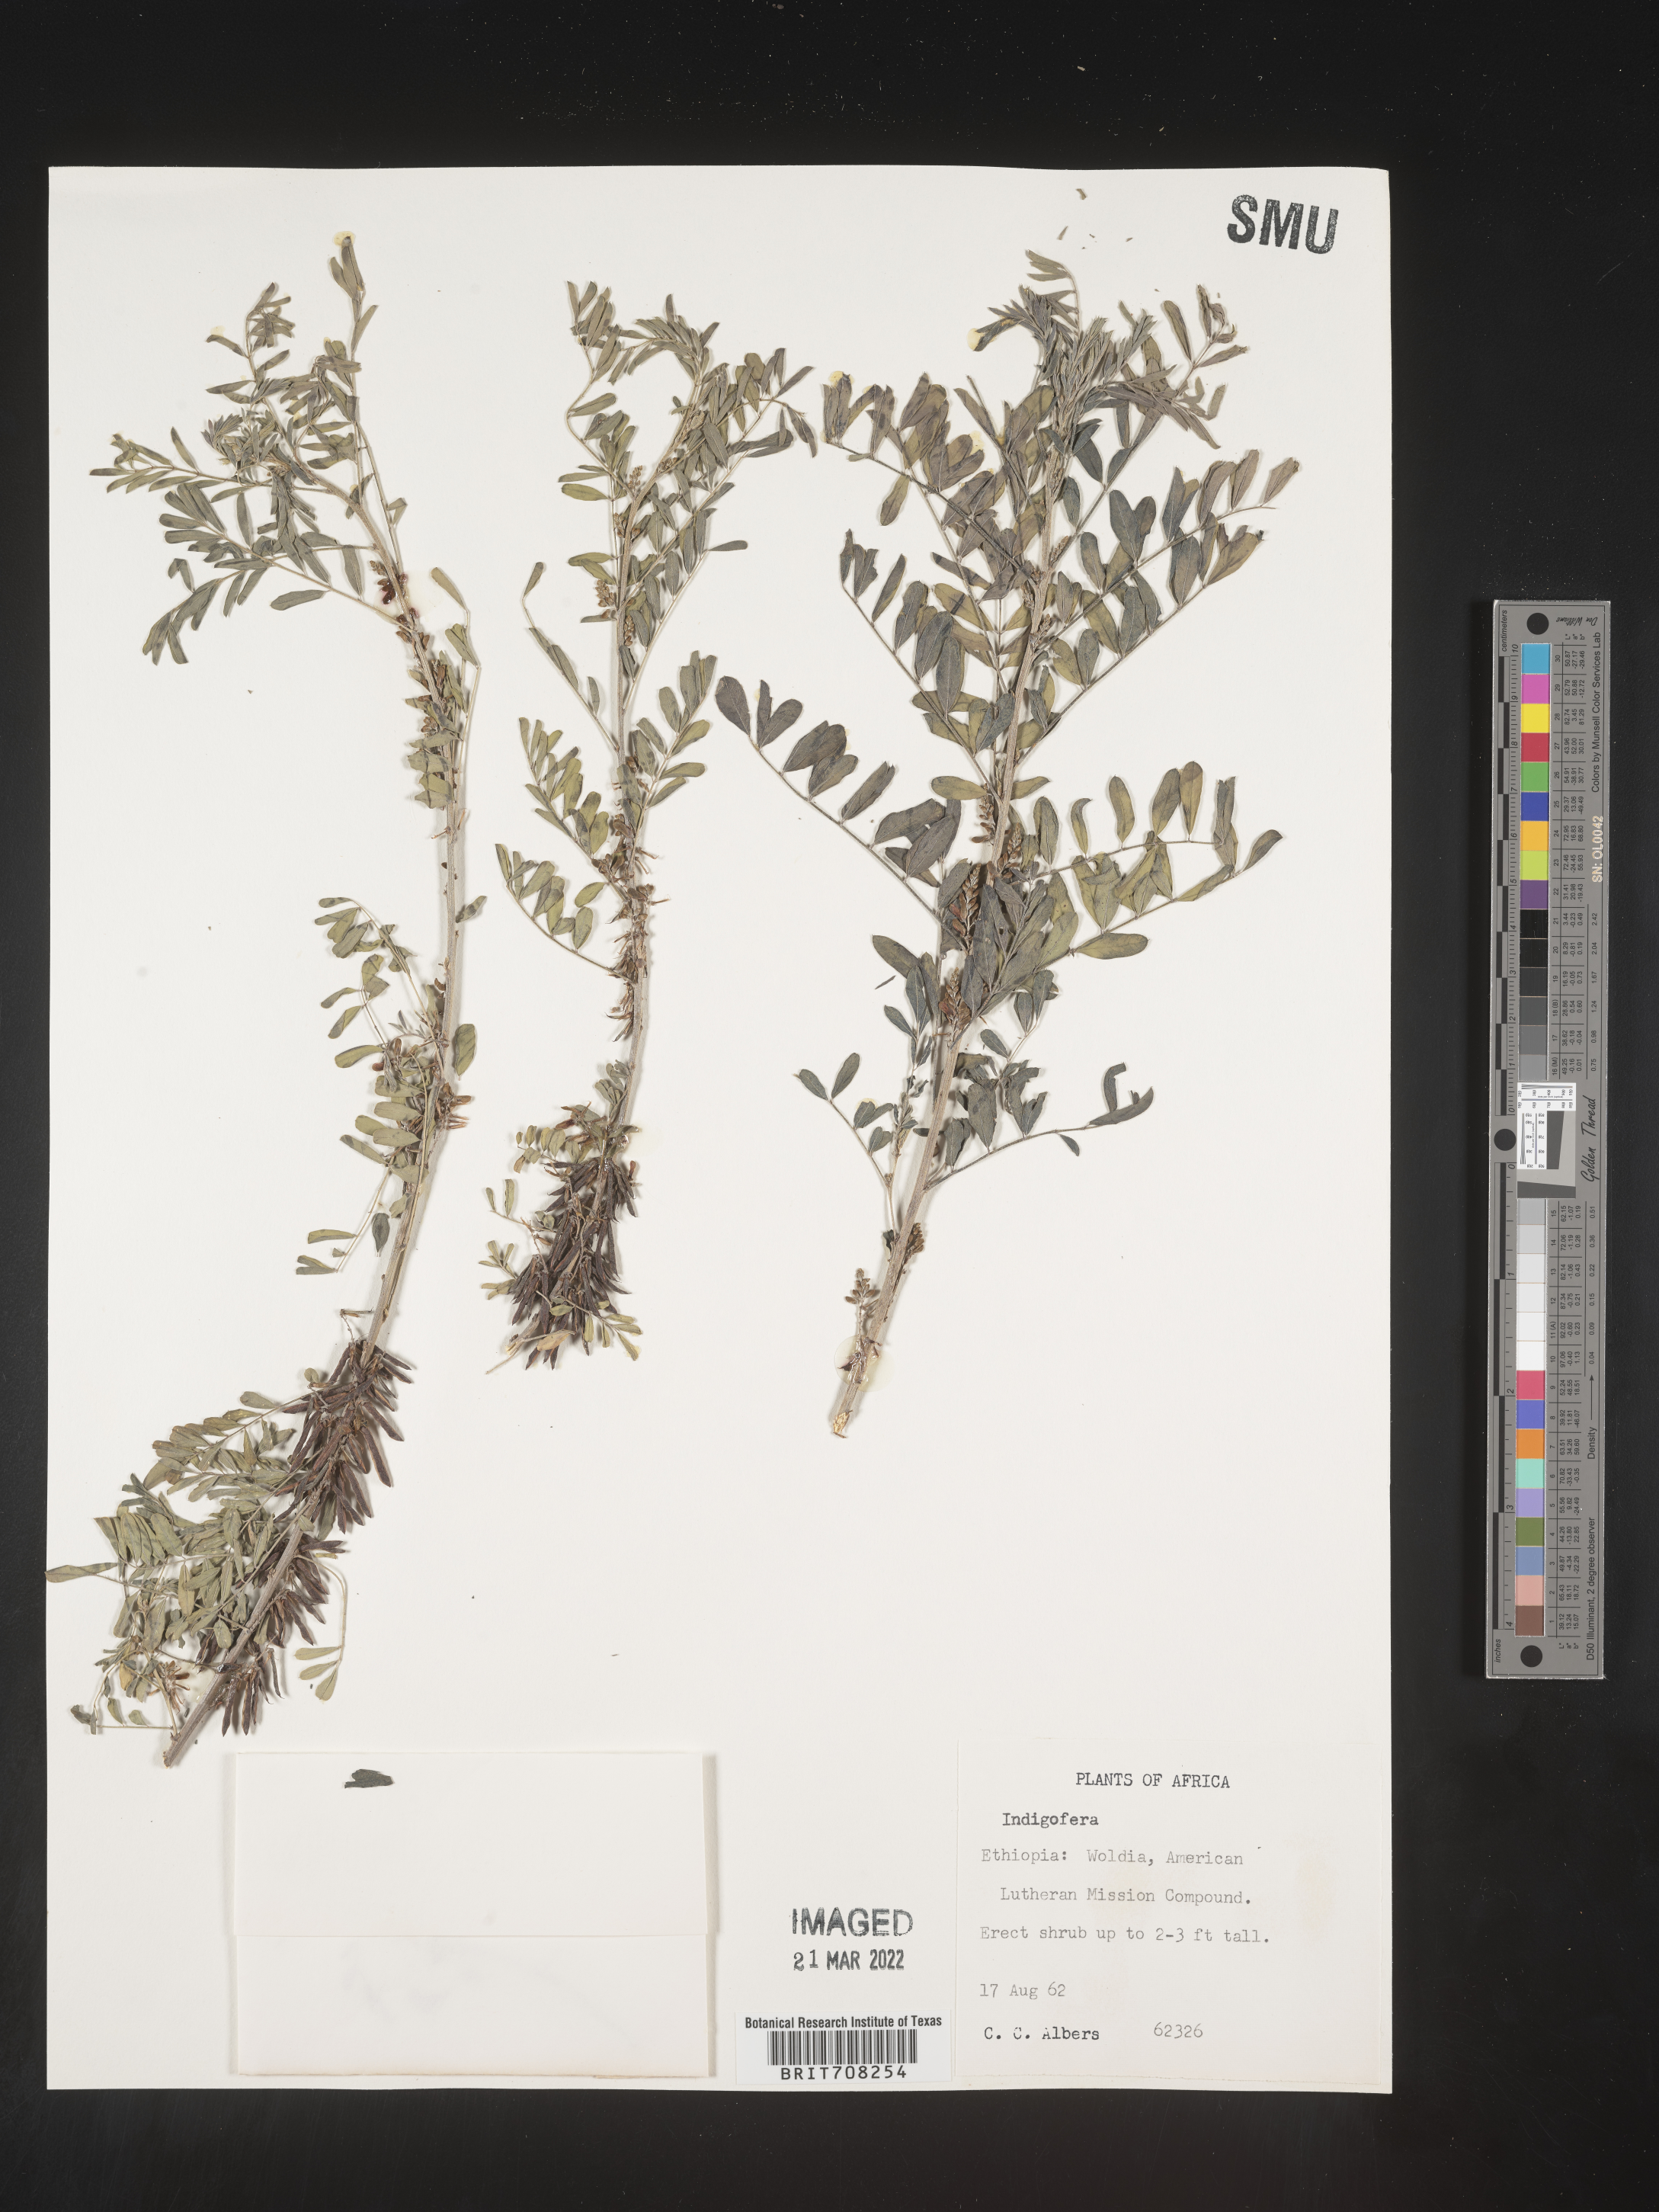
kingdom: Plantae
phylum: Tracheophyta
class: Magnoliopsida
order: Fabales
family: Fabaceae
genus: Indigofera
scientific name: Indigofera
